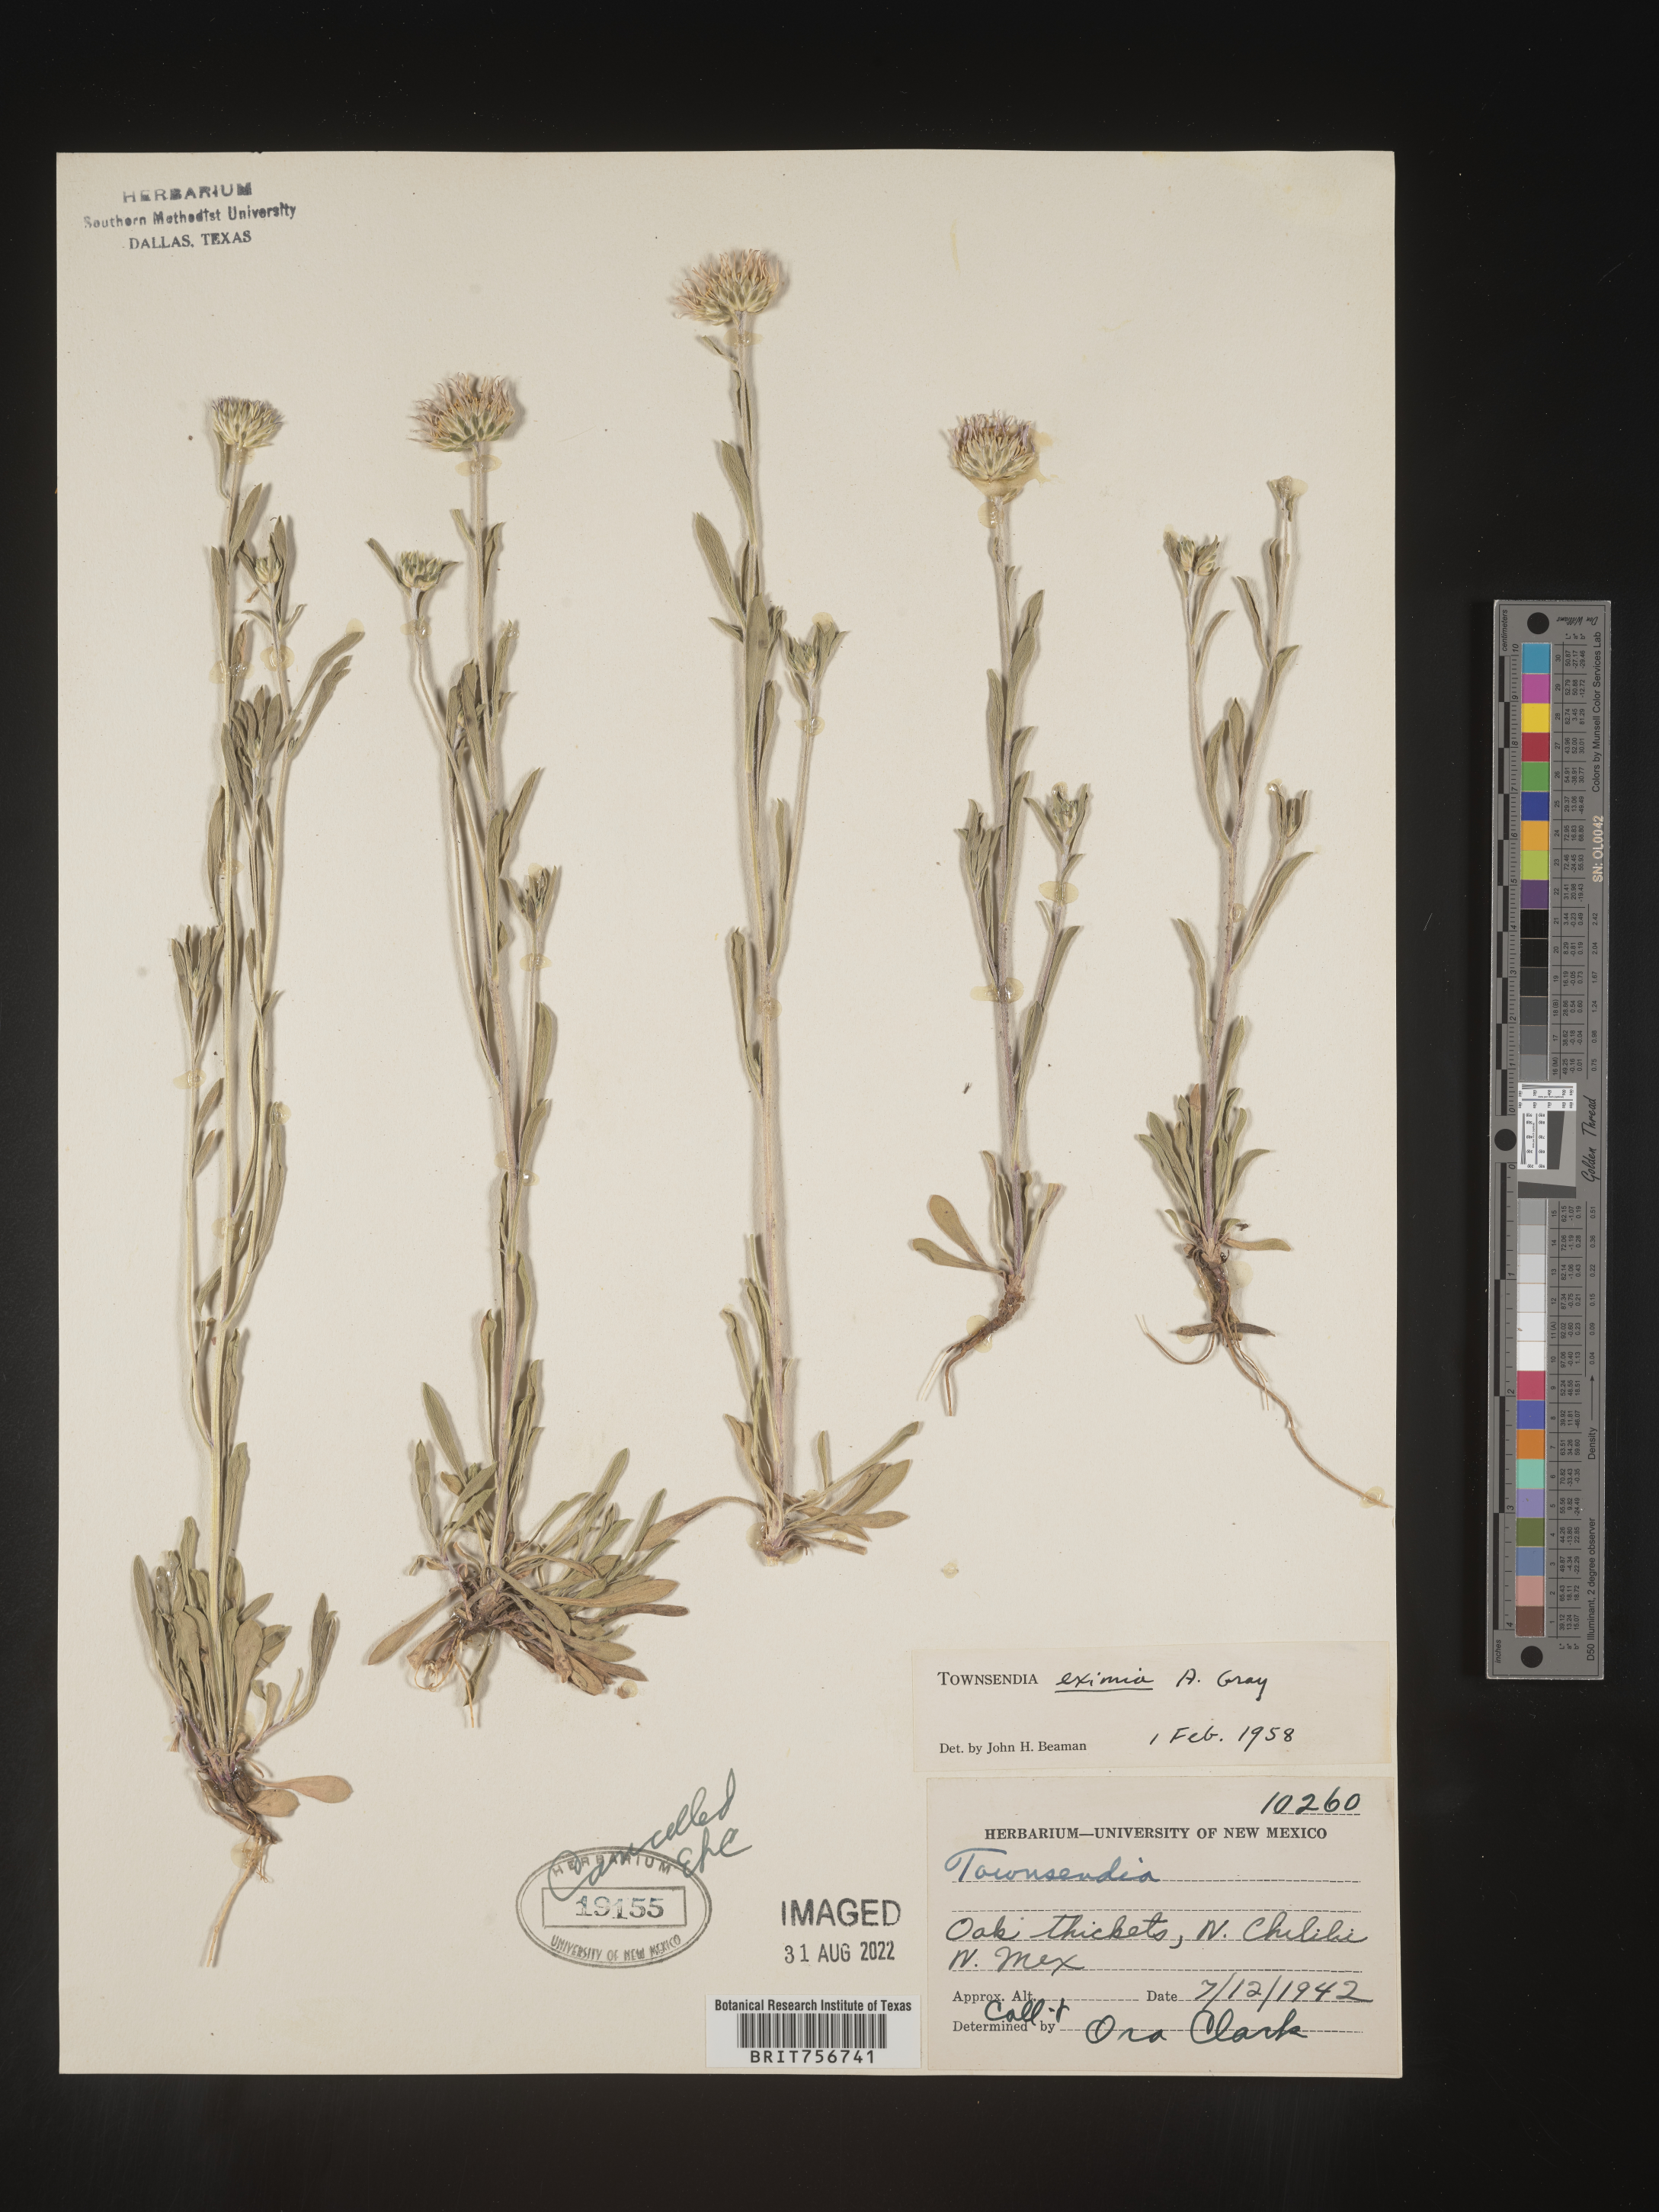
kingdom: Plantae
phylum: Tracheophyta
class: Magnoliopsida
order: Asterales
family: Asteraceae
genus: Townsendia
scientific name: Townsendia eximia
